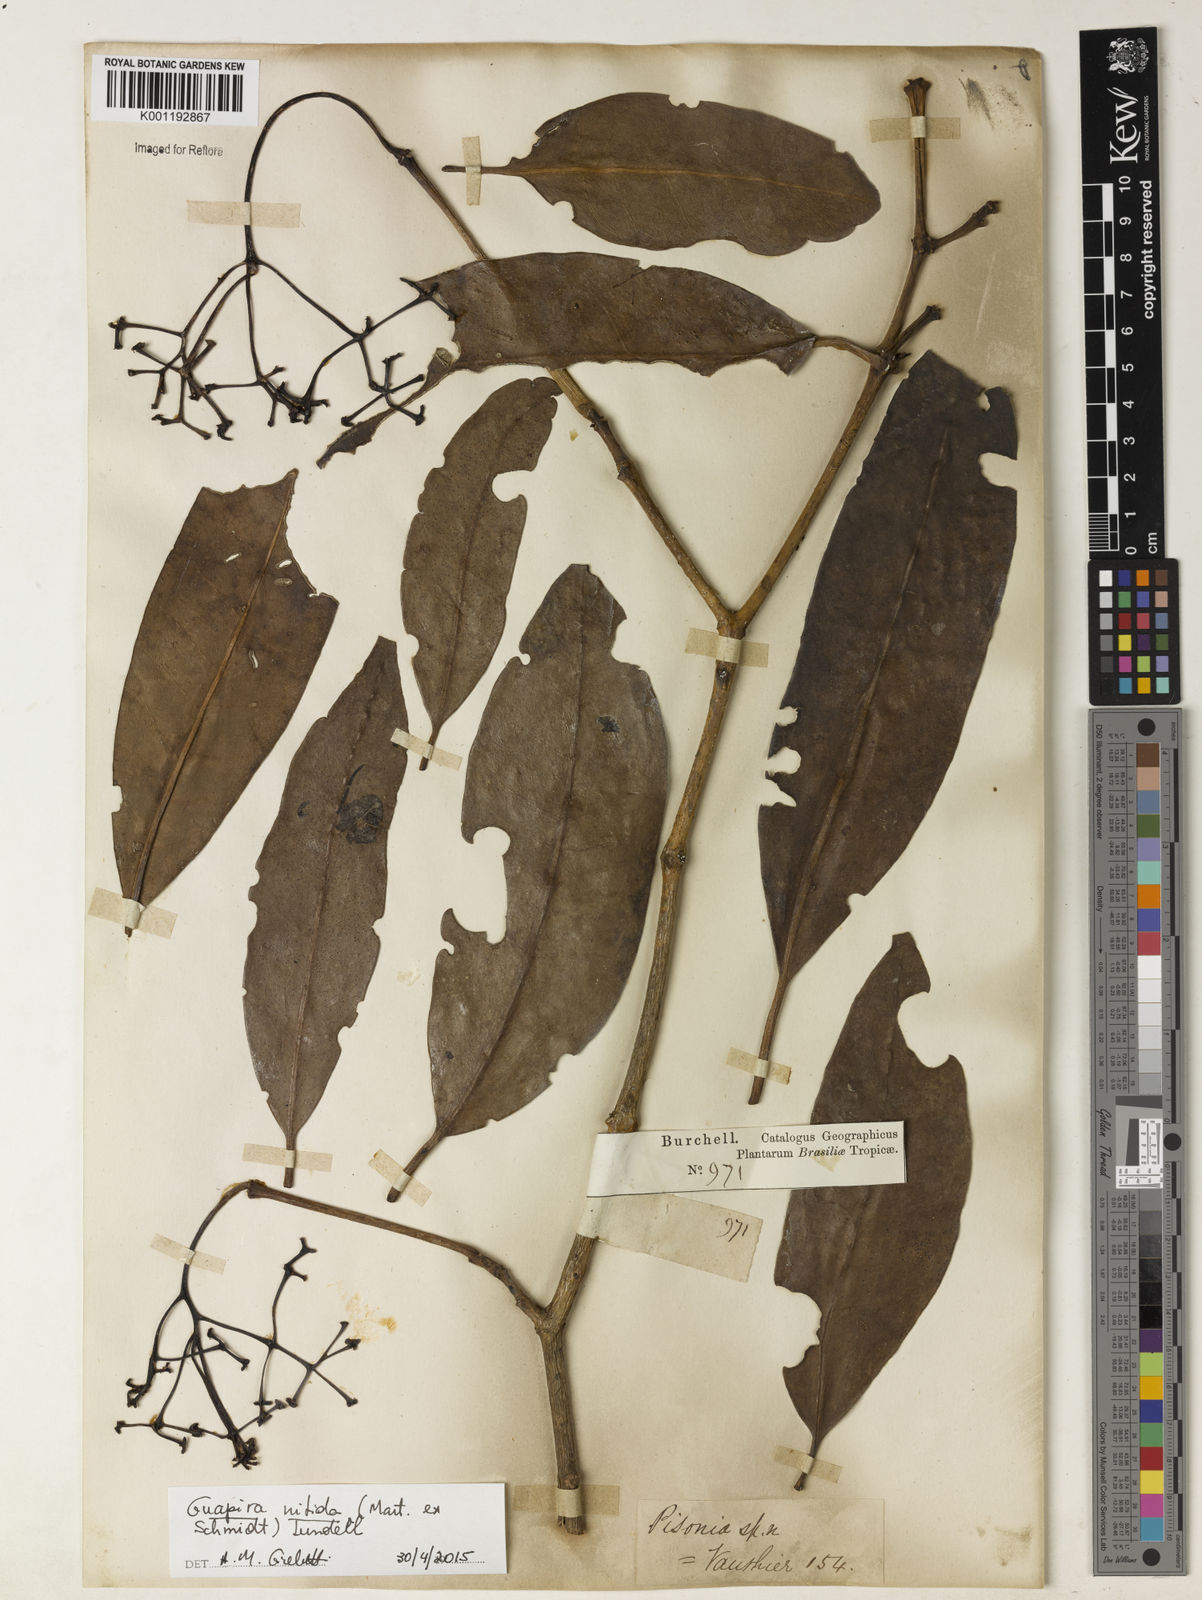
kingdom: Plantae
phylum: Tracheophyta
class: Magnoliopsida
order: Caryophyllales
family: Nyctaginaceae
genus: Guapira
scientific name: Guapira nitida
